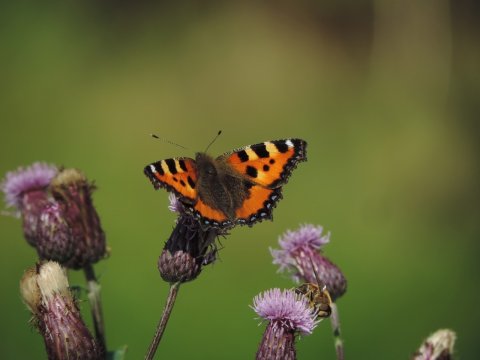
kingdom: Animalia
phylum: Arthropoda
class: Insecta
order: Lepidoptera
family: Nymphalidae
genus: Aglais
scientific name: Aglais urticae
